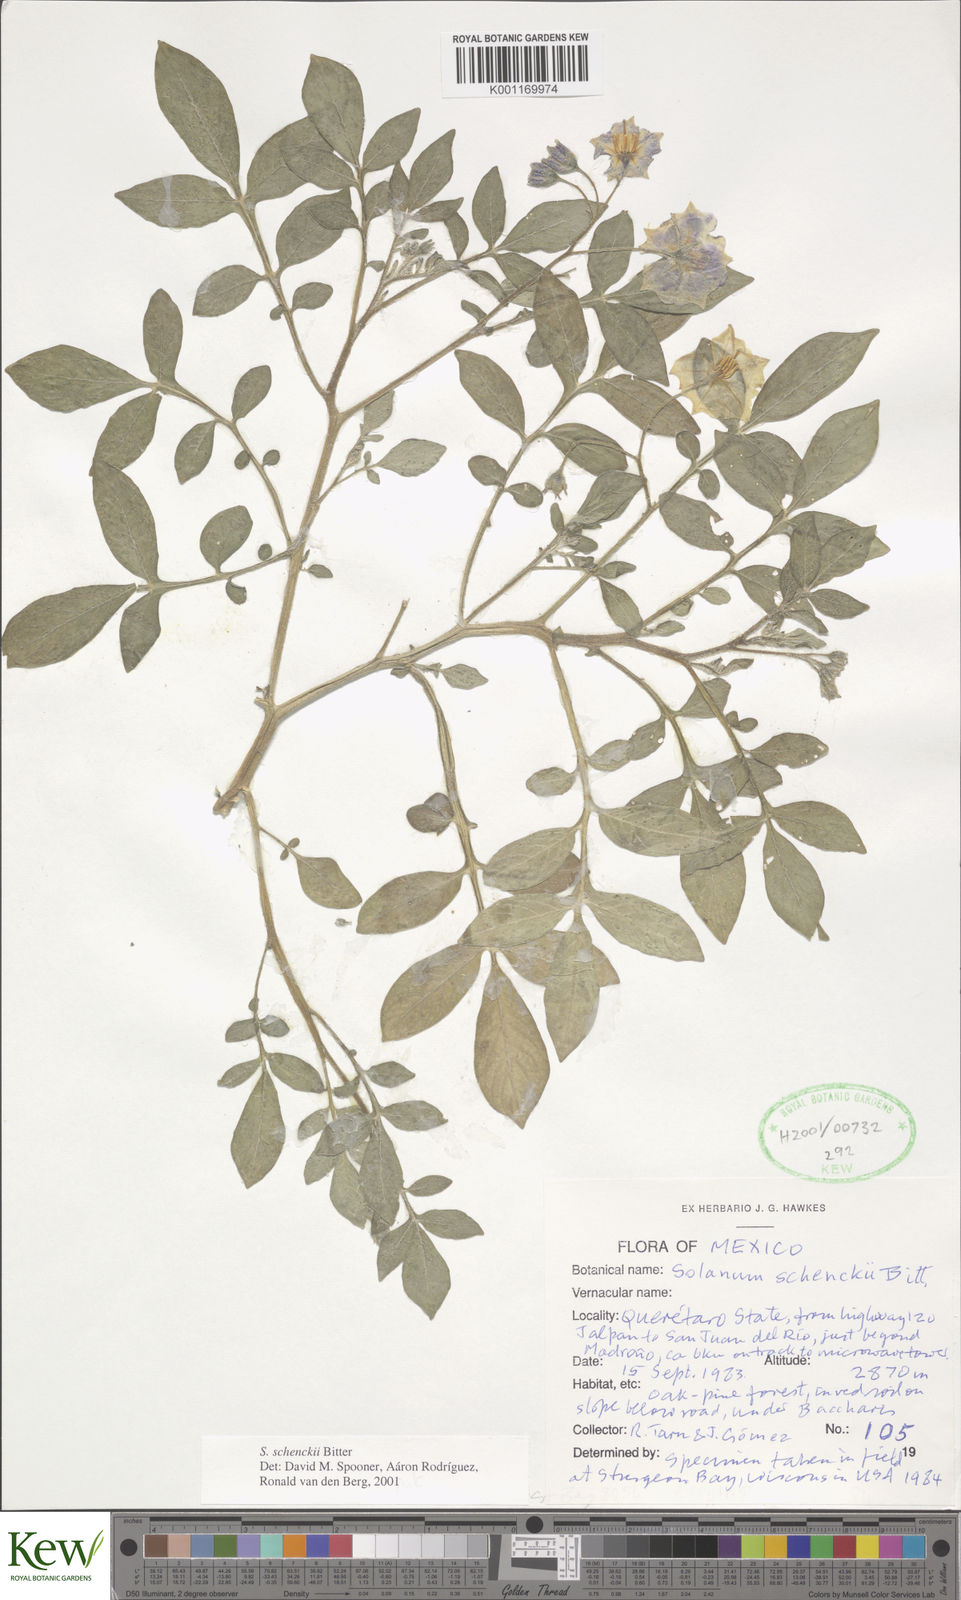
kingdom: Plantae
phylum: Tracheophyta
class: Magnoliopsida
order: Solanales
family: Solanaceae
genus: Solanum
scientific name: Solanum schenckii
